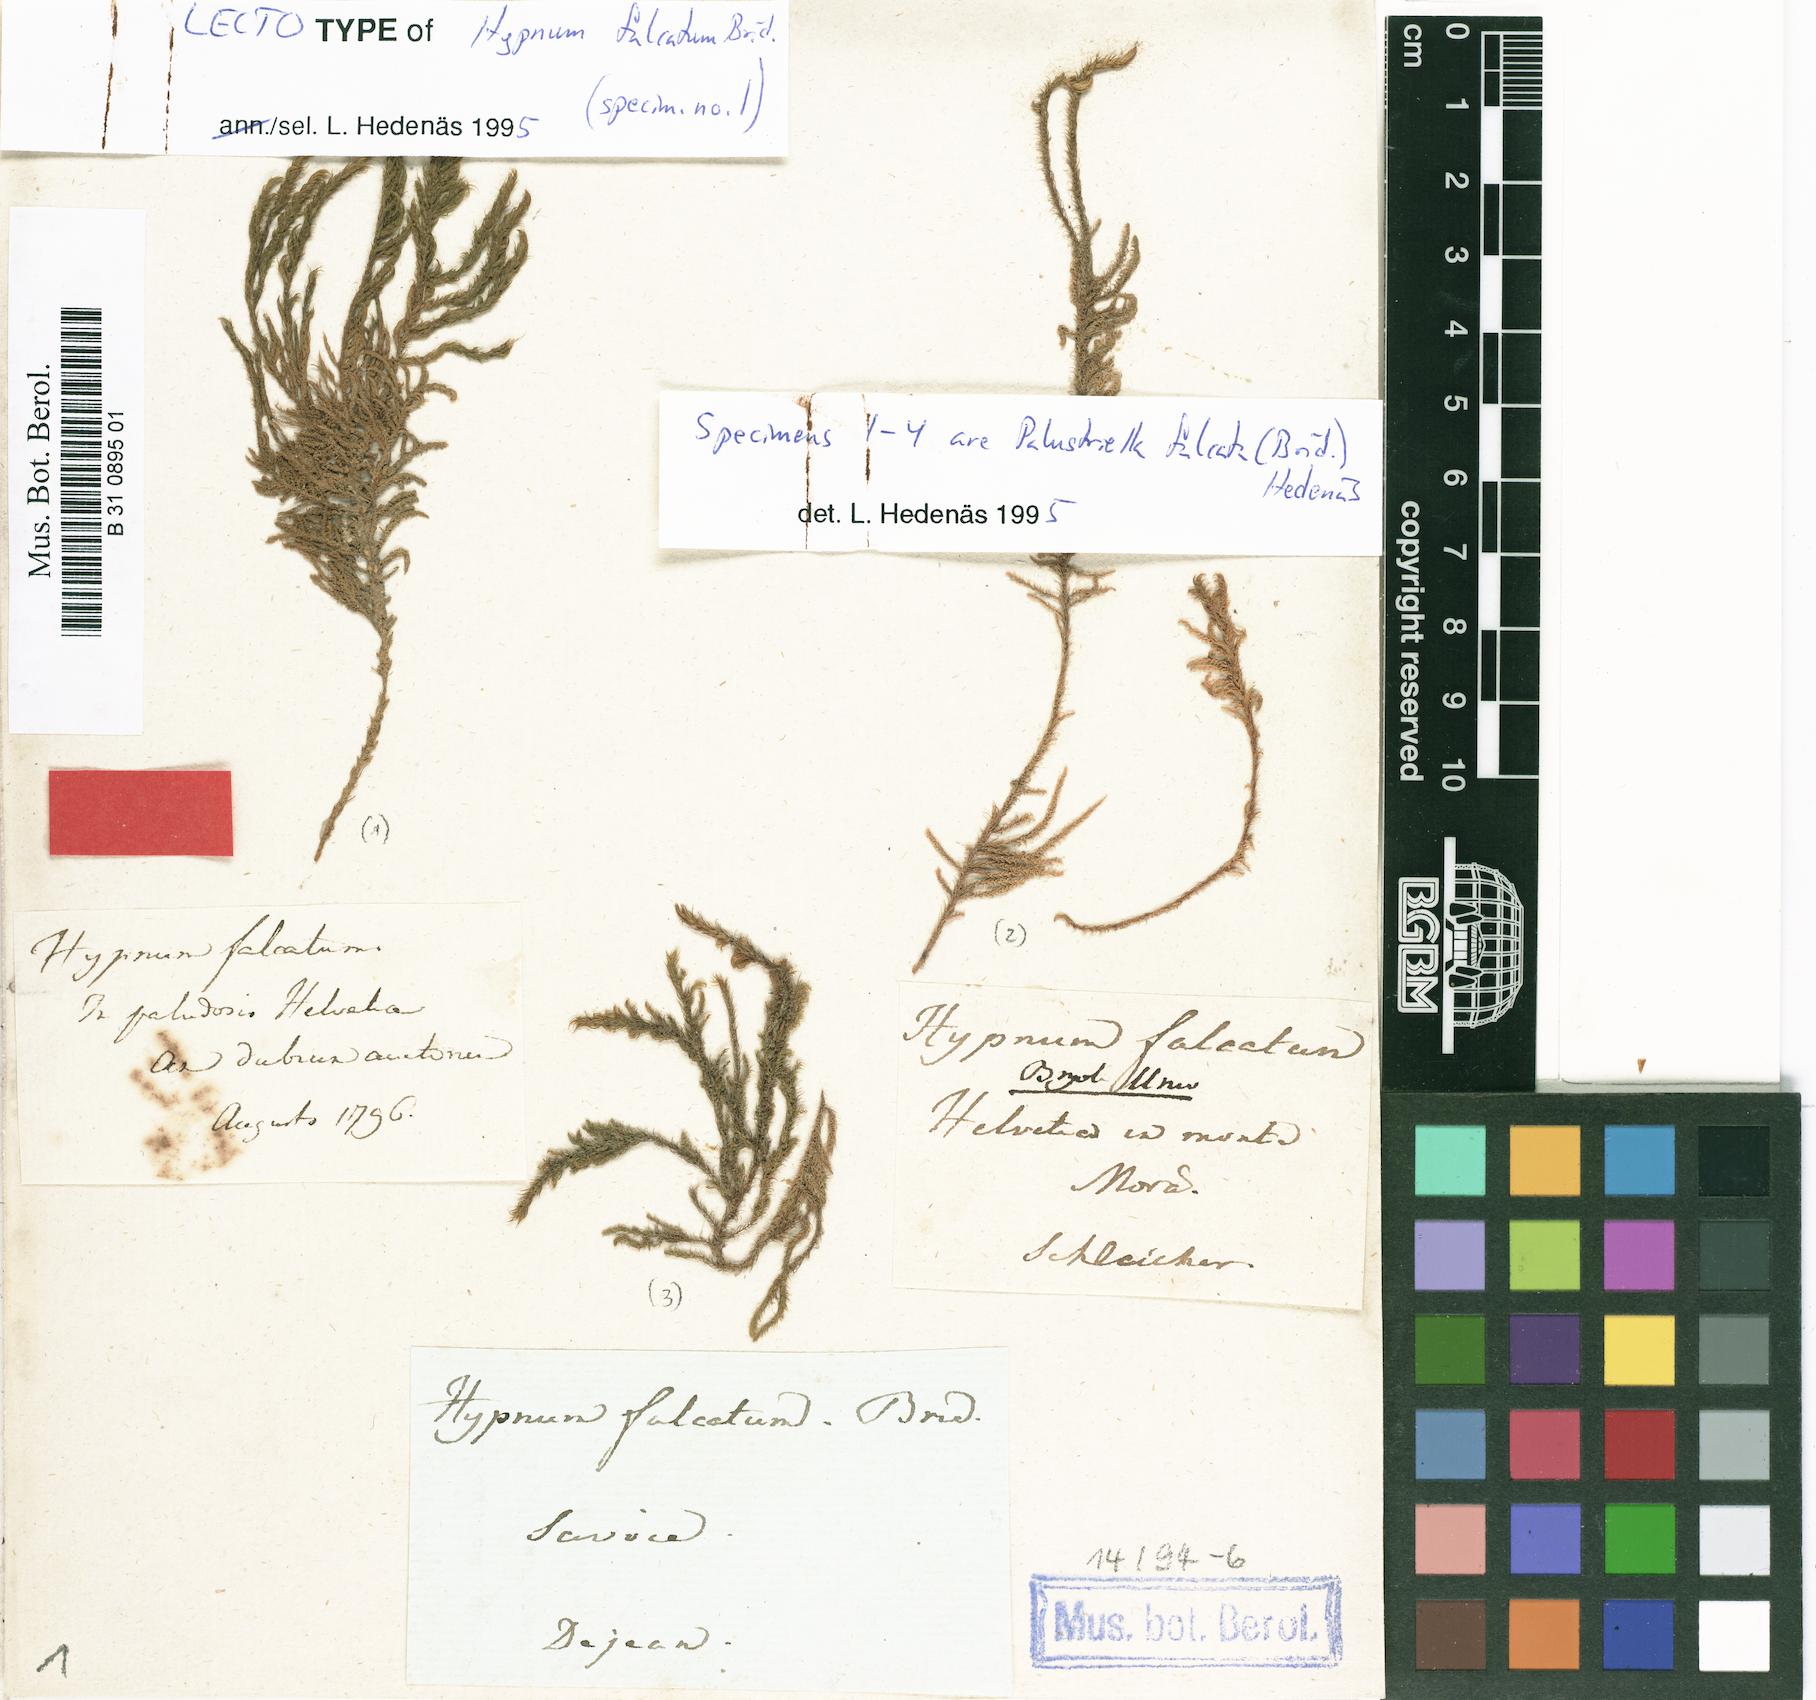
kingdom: Plantae
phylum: Bryophyta
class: Bryopsida
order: Hypnales
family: Amblystegiaceae
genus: Palustriella
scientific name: Palustriella falcata
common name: Curled hook-moss
